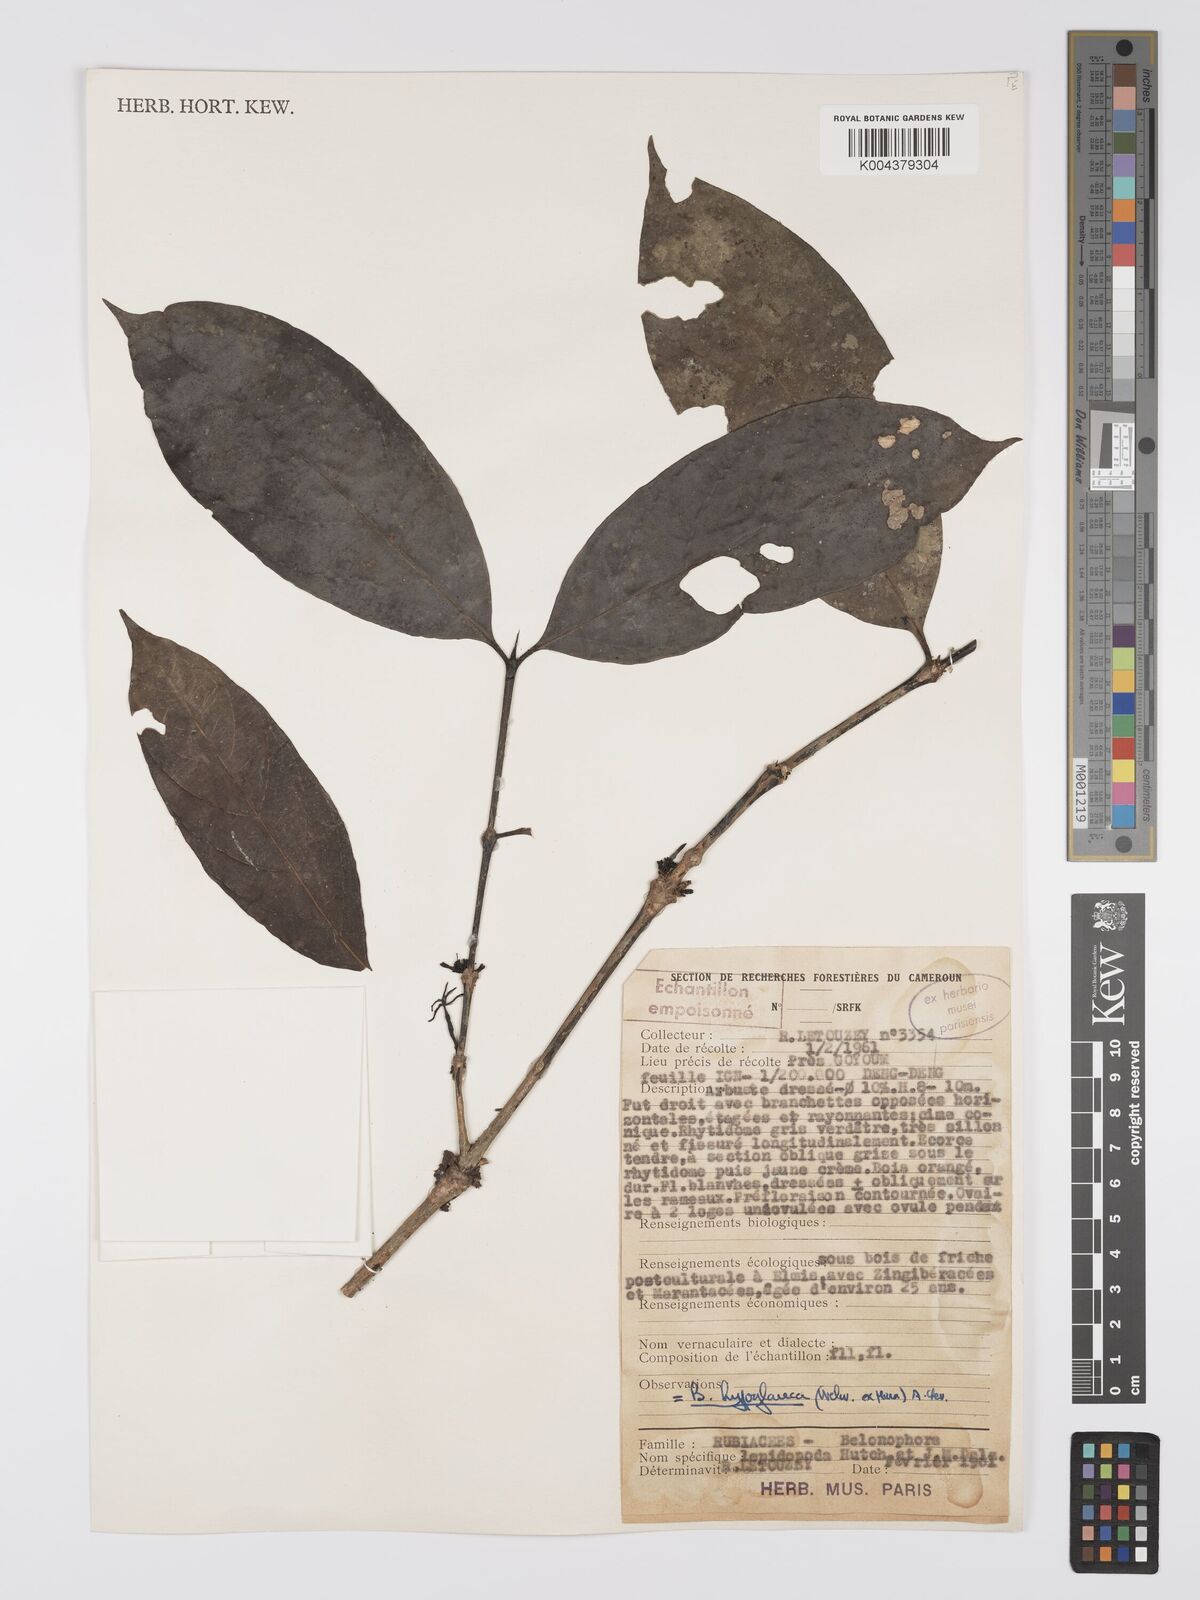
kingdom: Plantae
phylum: Tracheophyta
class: Magnoliopsida
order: Gentianales
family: Rubiaceae
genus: Belonophora
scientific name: Belonophora coffeoides
